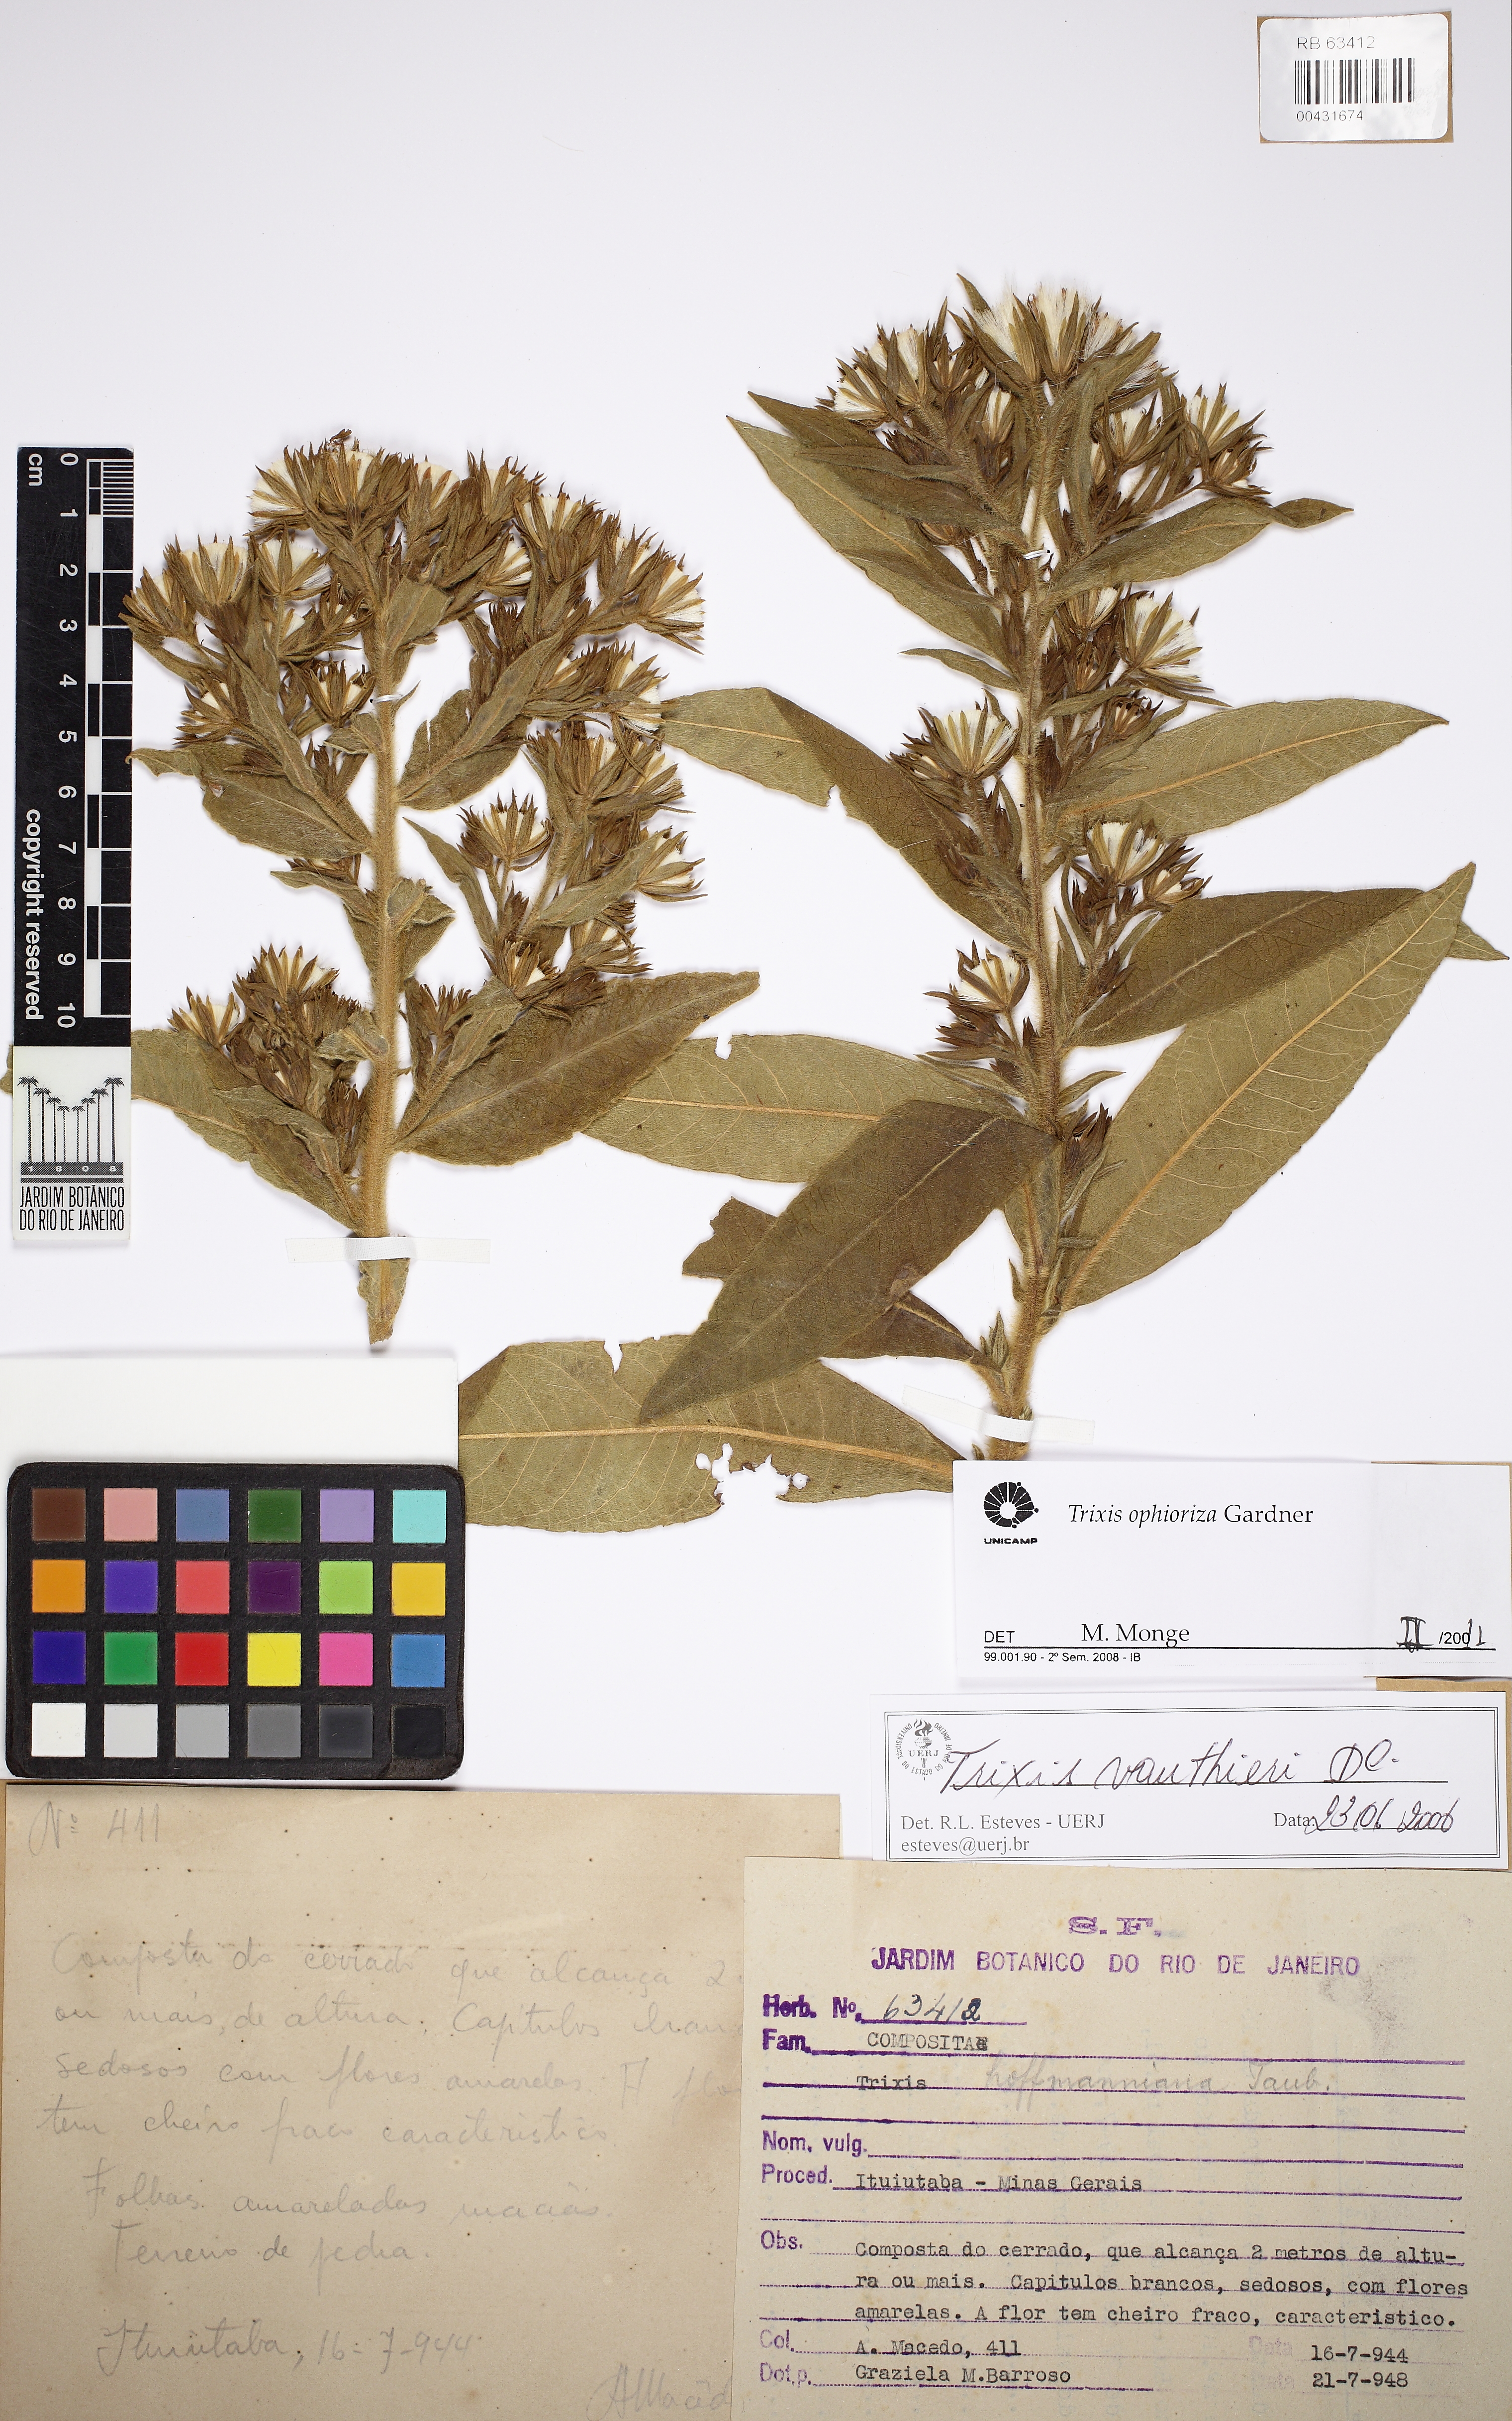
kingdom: Plantae
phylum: Tracheophyta
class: Magnoliopsida
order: Asterales
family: Asteraceae
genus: Trixis
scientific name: Trixis ophiorhiza
